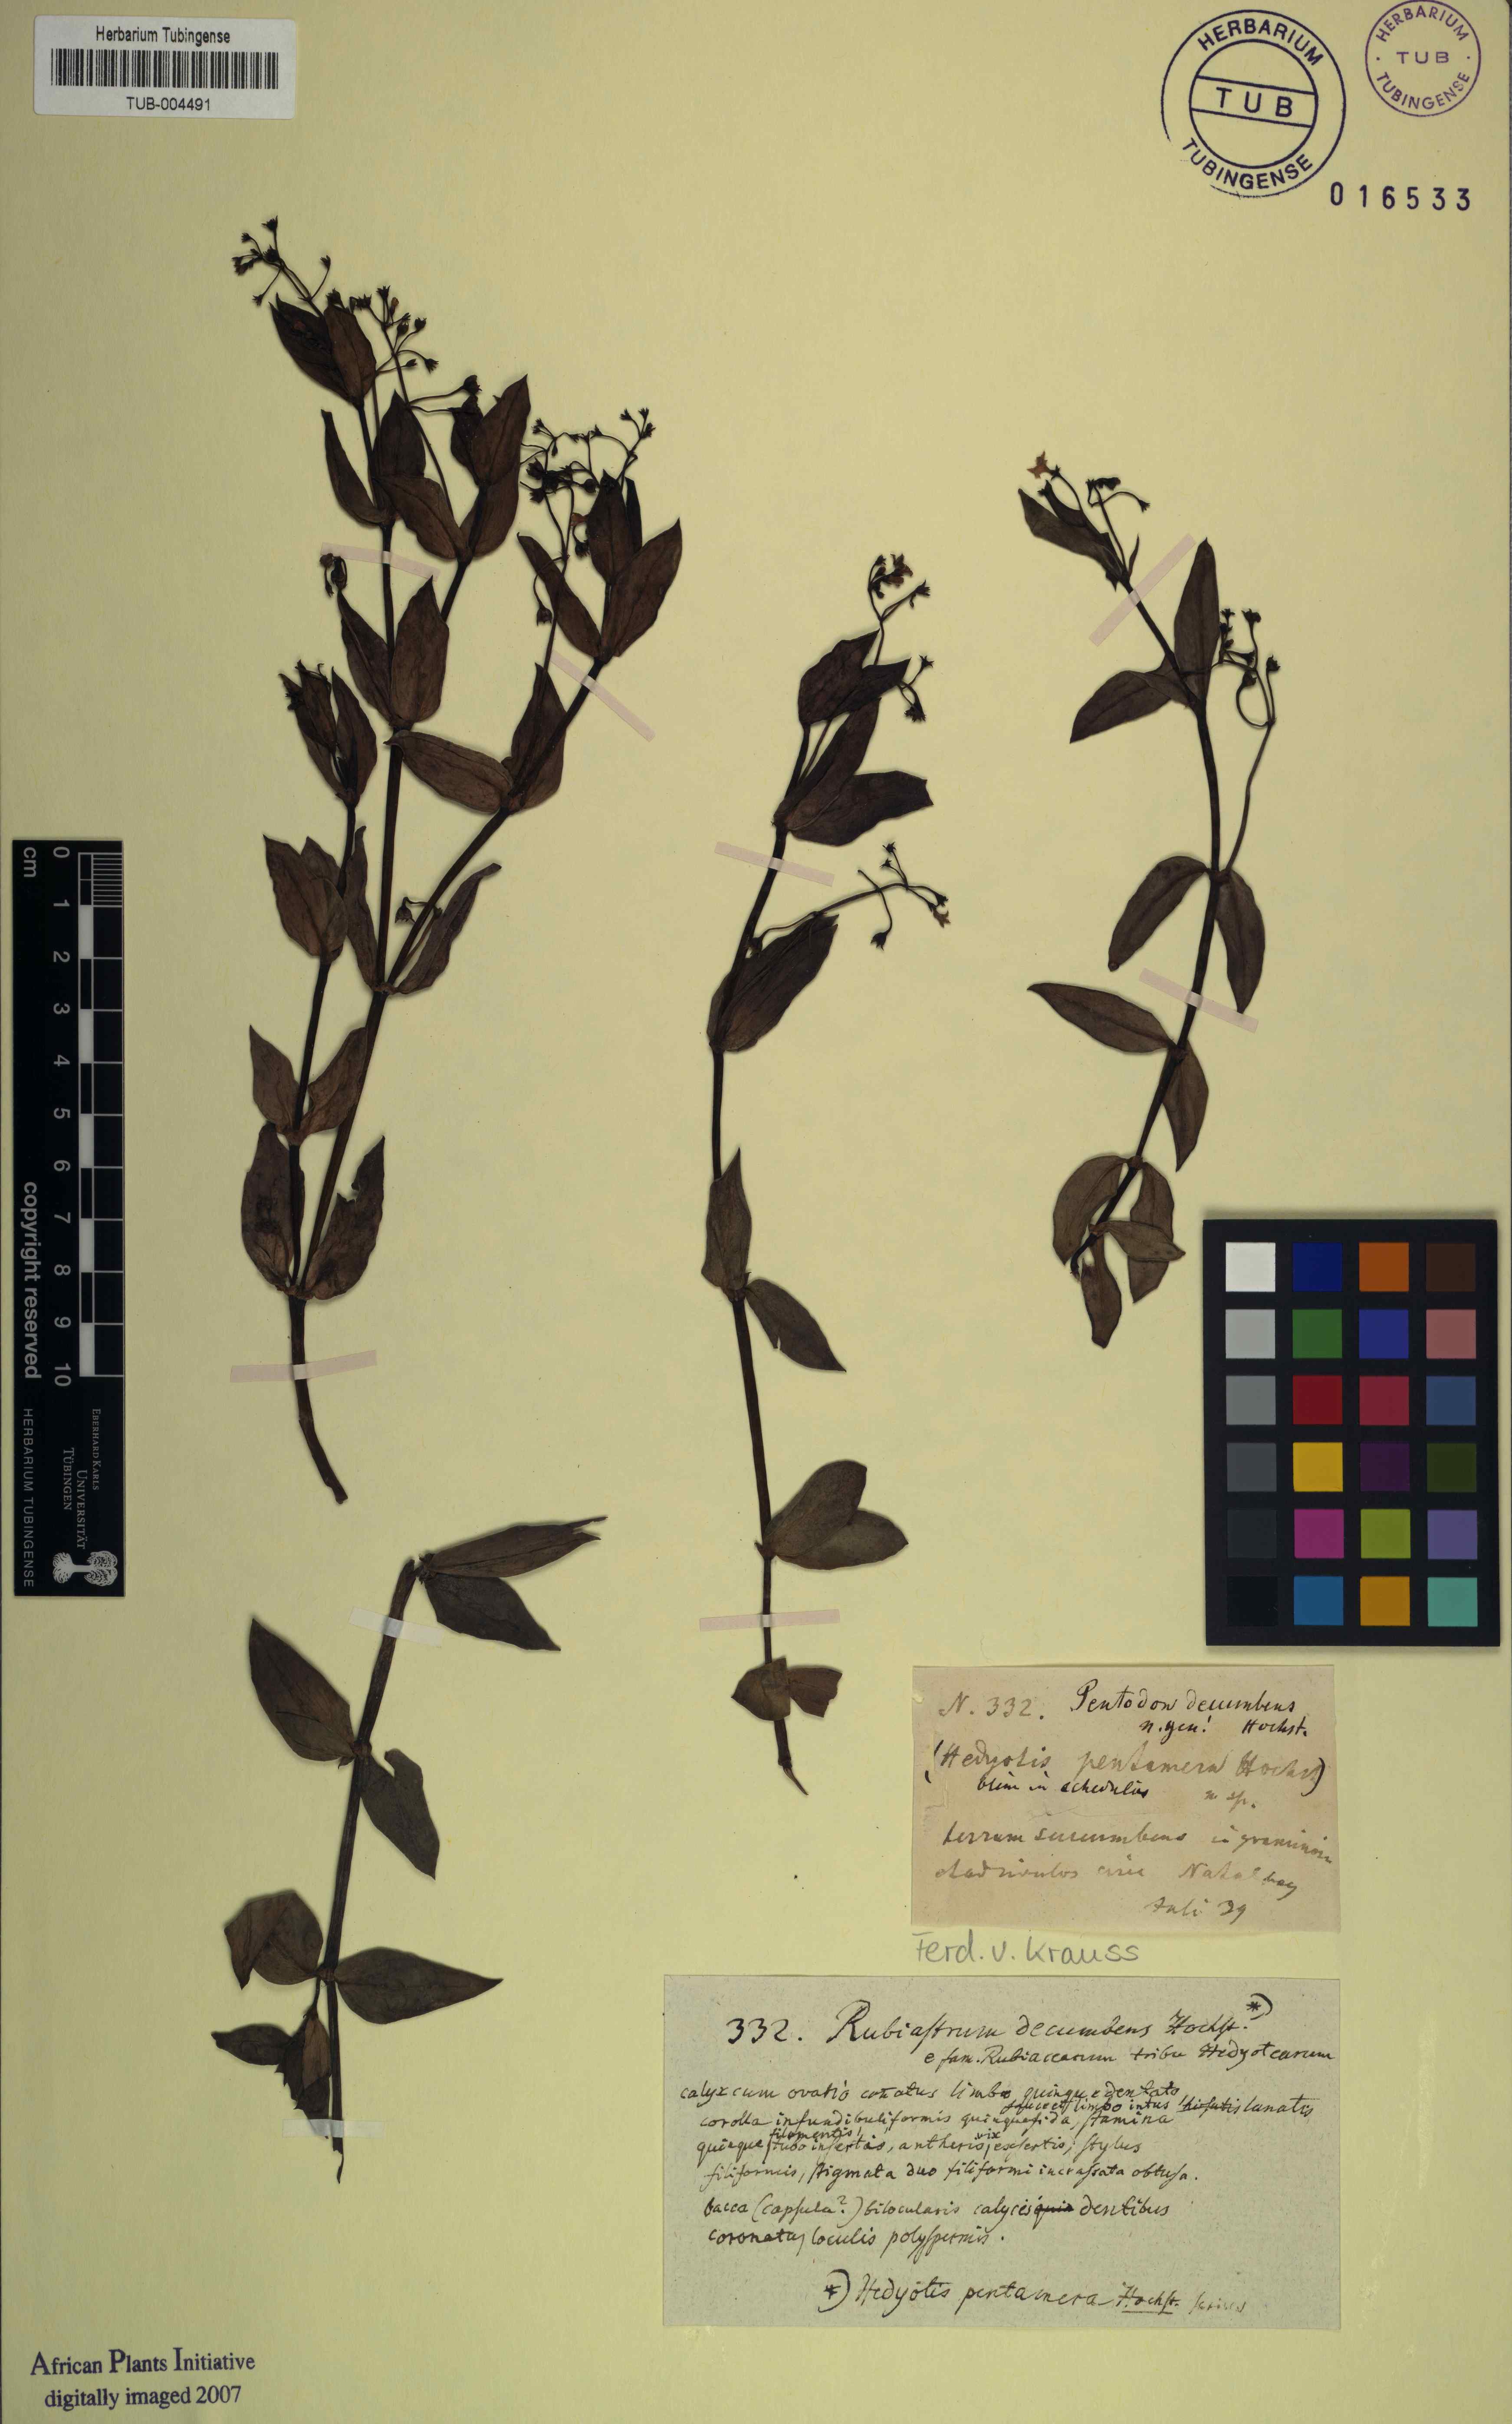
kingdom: Plantae
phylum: Tracheophyta
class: Magnoliopsida
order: Gentianales
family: Rubiaceae
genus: Oldenlandia
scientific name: Oldenlandia affinis
